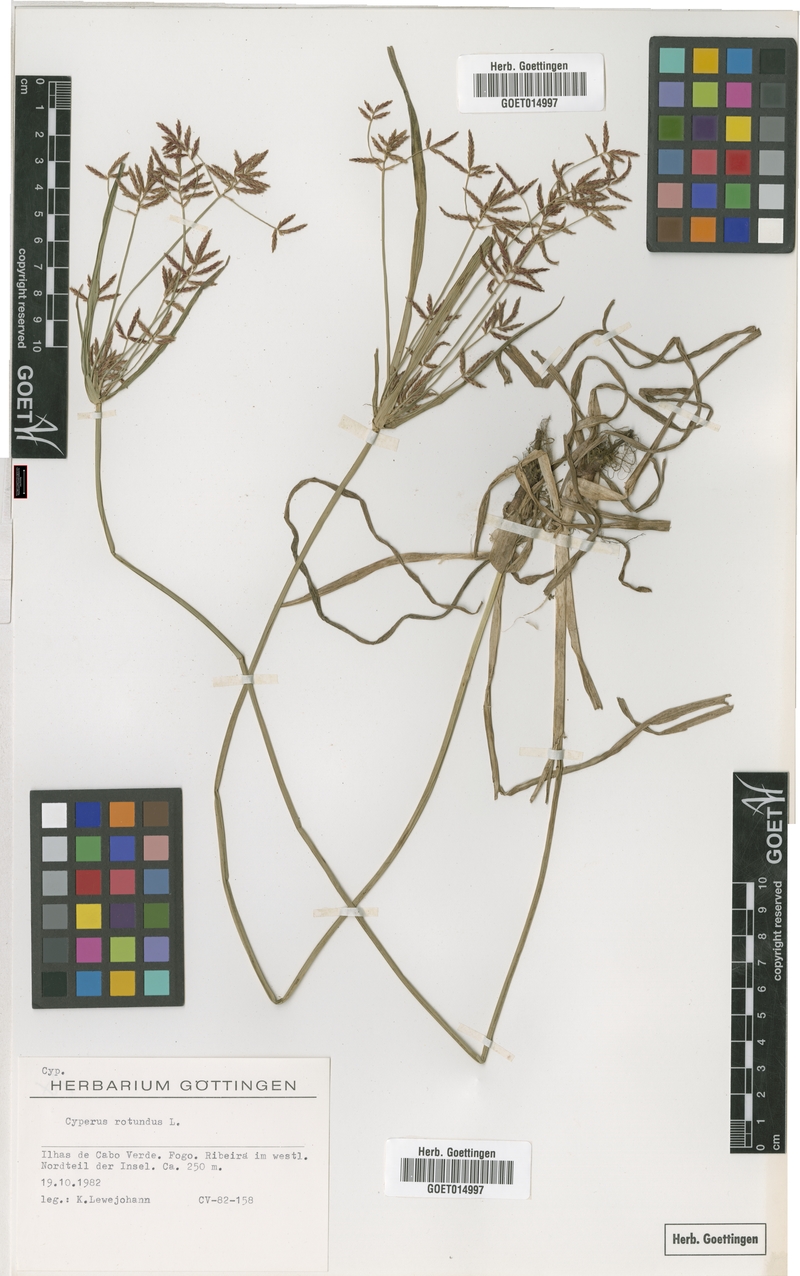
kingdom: Plantae
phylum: Tracheophyta
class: Liliopsida
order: Poales
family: Cyperaceae
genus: Cyperus
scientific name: Cyperus rotundus
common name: Nutgrass
